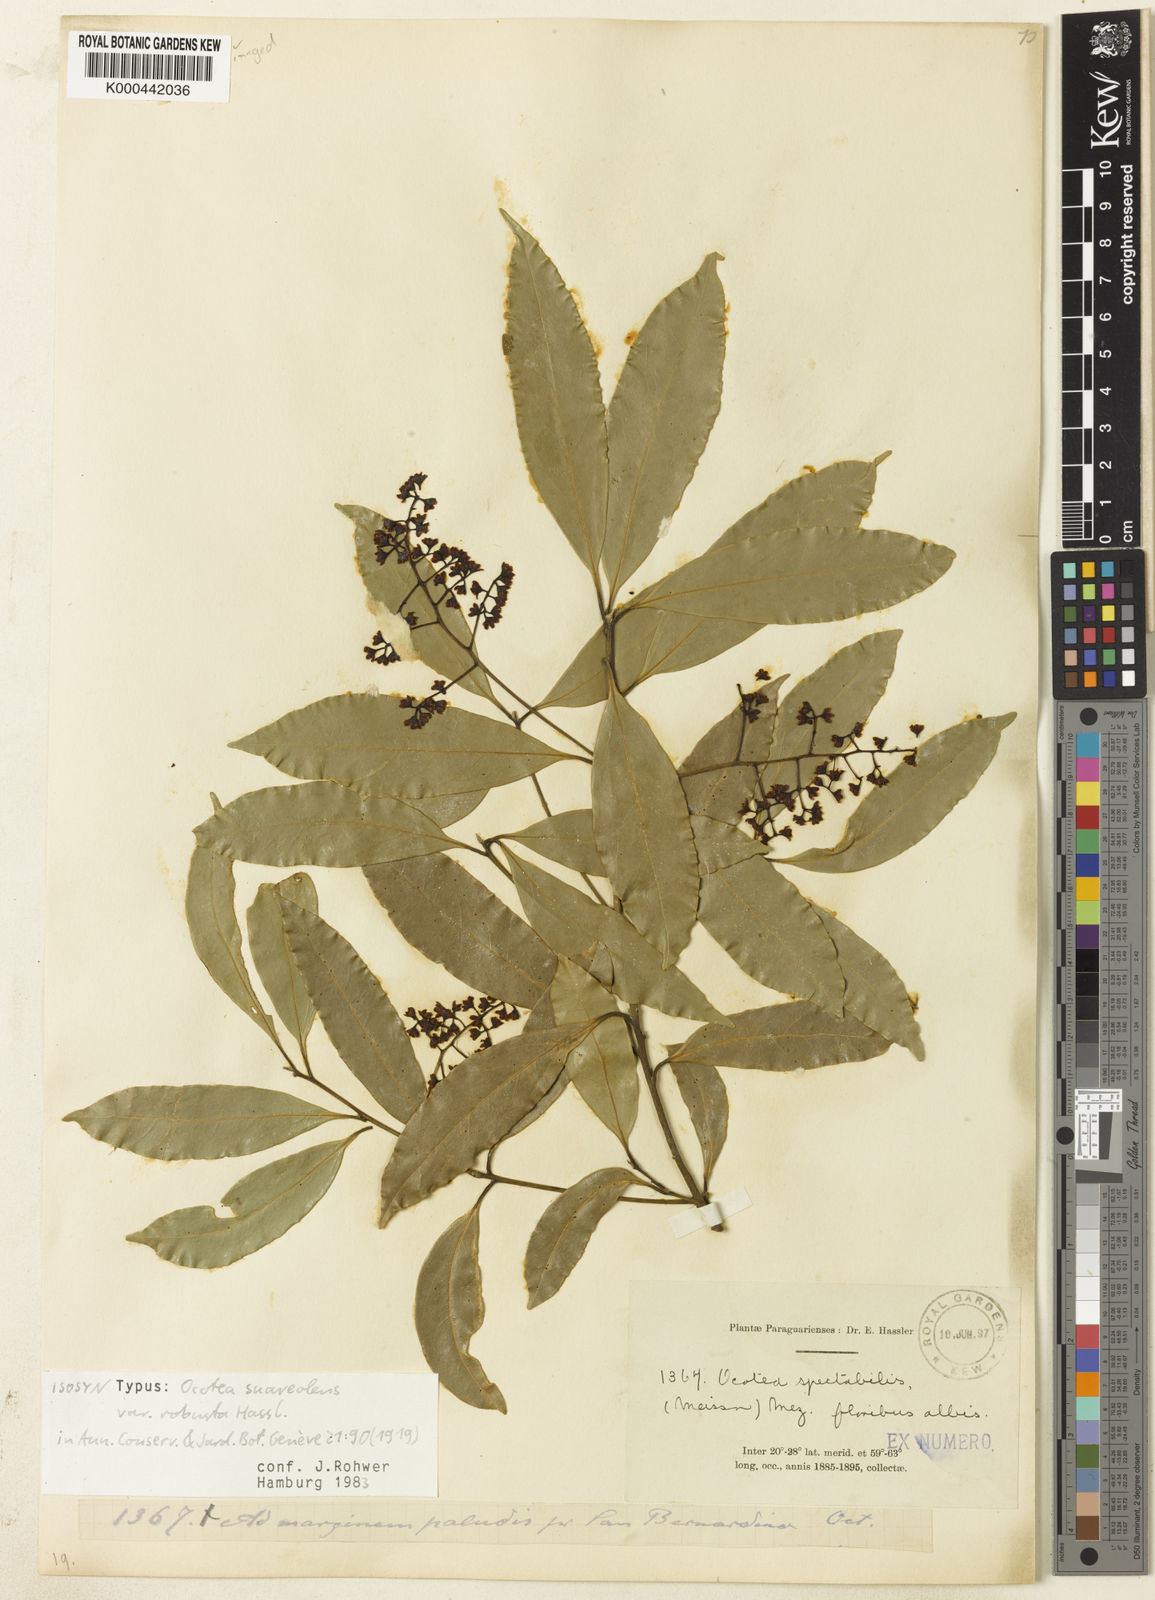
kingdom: Plantae
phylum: Tracheophyta
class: Magnoliopsida
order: Laurales
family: Lauraceae
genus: Ocotea
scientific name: Ocotea diospyrifolia
